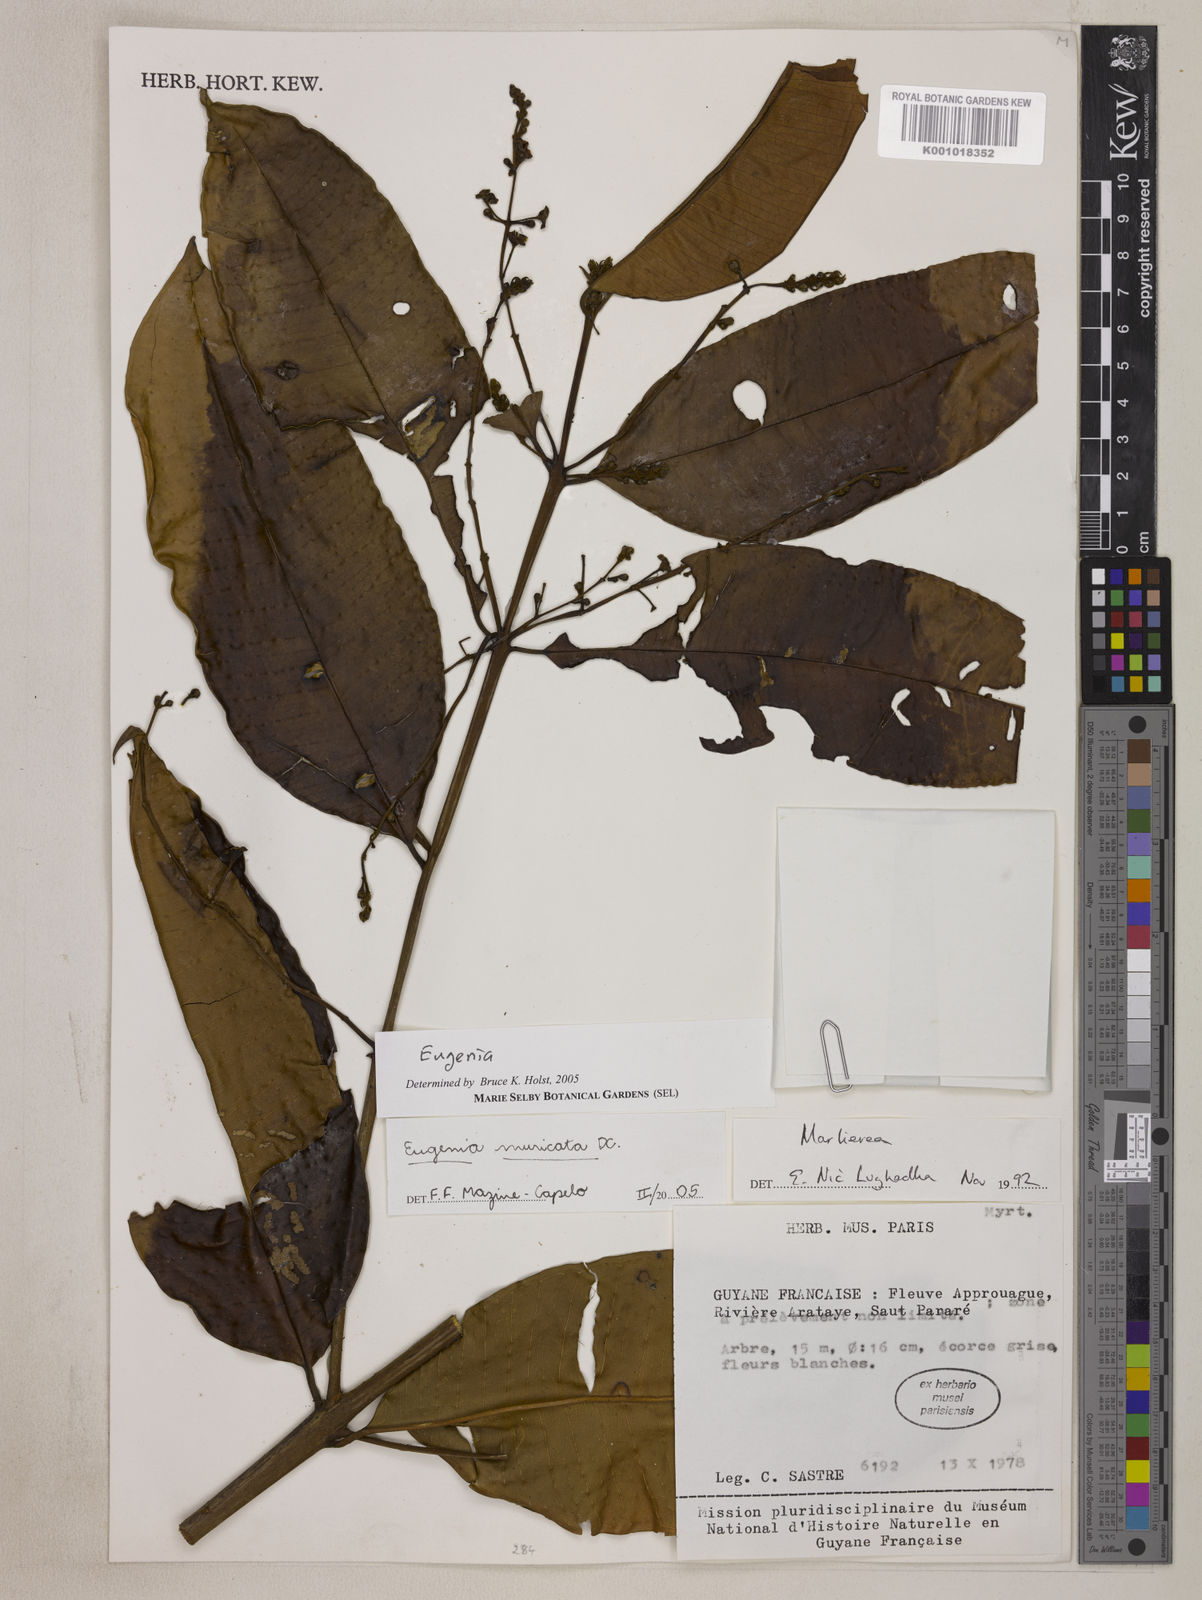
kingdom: Plantae
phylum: Tracheophyta
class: Magnoliopsida
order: Myrtales
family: Myrtaceae
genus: Eugenia
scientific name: Eugenia muricata
